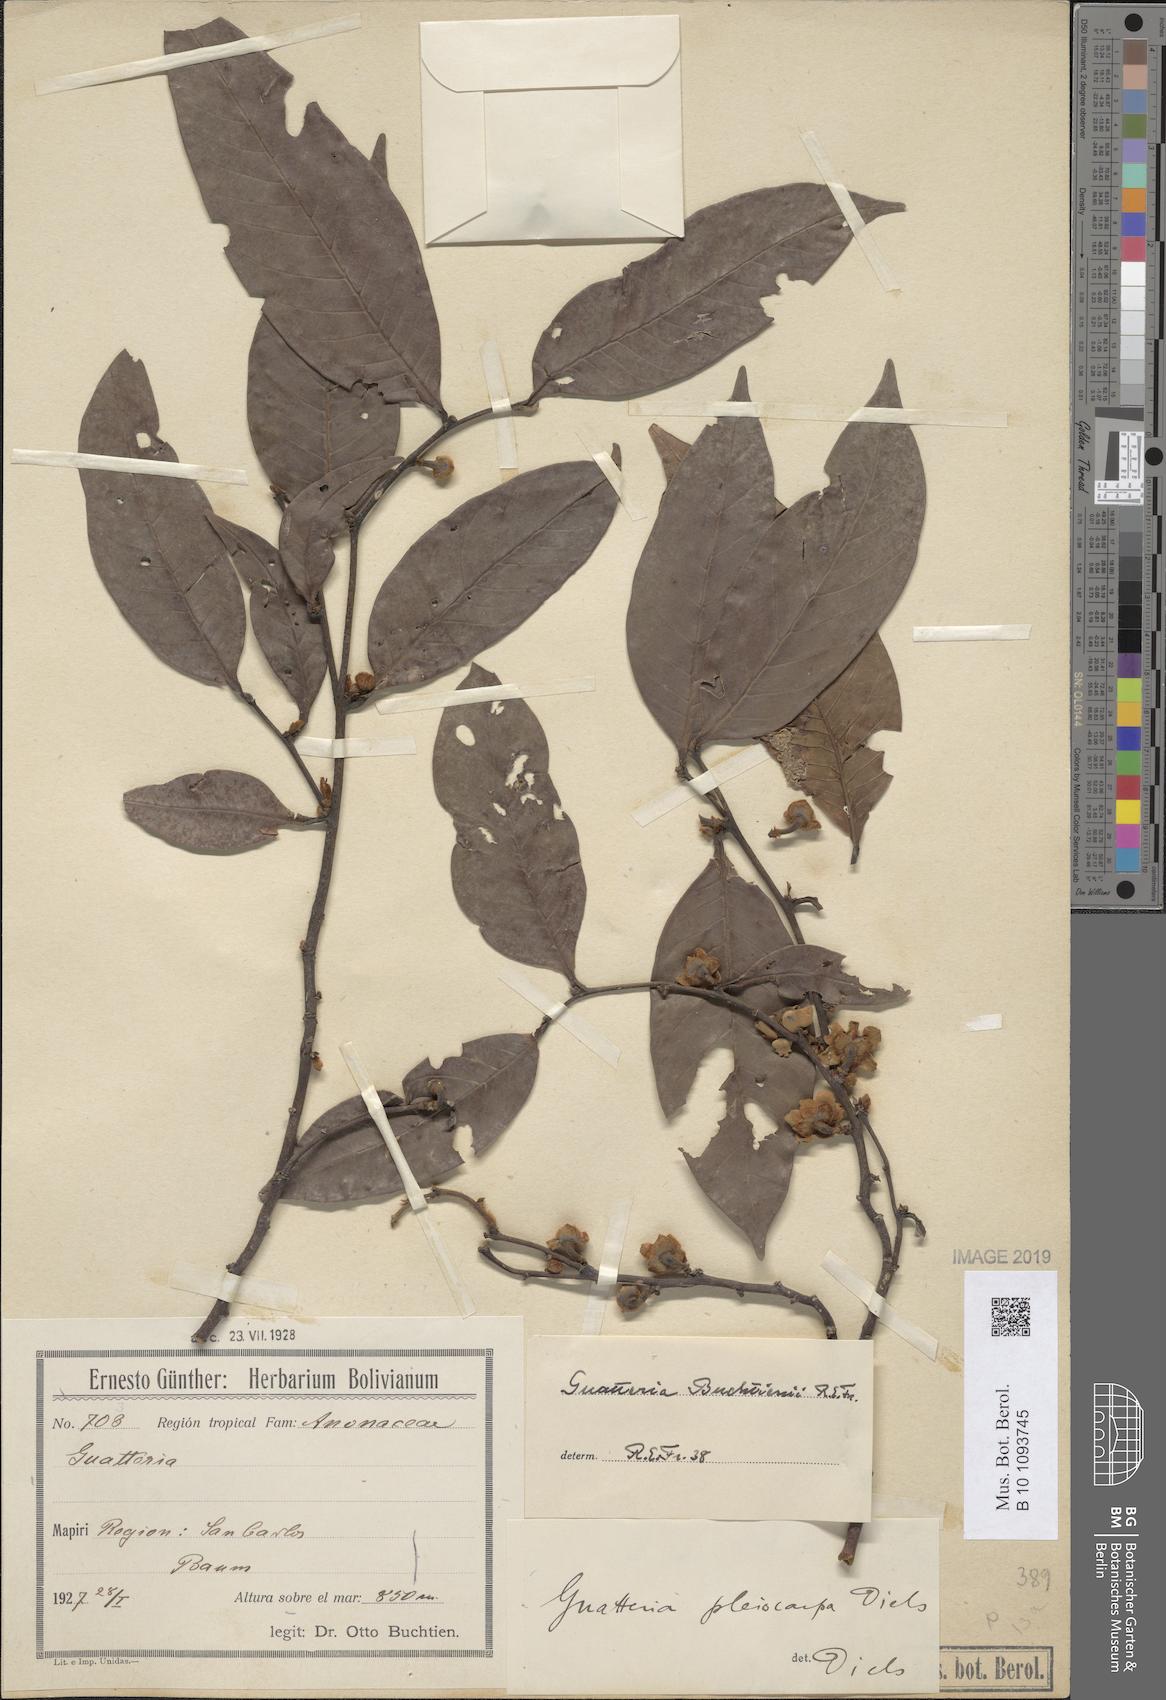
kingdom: Plantae
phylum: Tracheophyta
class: Magnoliopsida
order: Magnoliales
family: Annonaceae
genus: Guatteria
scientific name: Guatteria punctata
